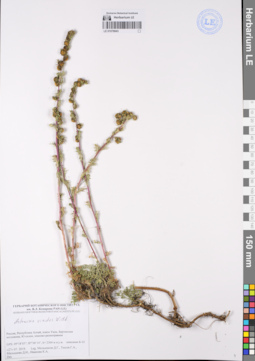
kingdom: Plantae
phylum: Tracheophyta
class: Magnoliopsida
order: Asterales
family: Asteraceae
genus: Artemisia
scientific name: Artemisia viridis
